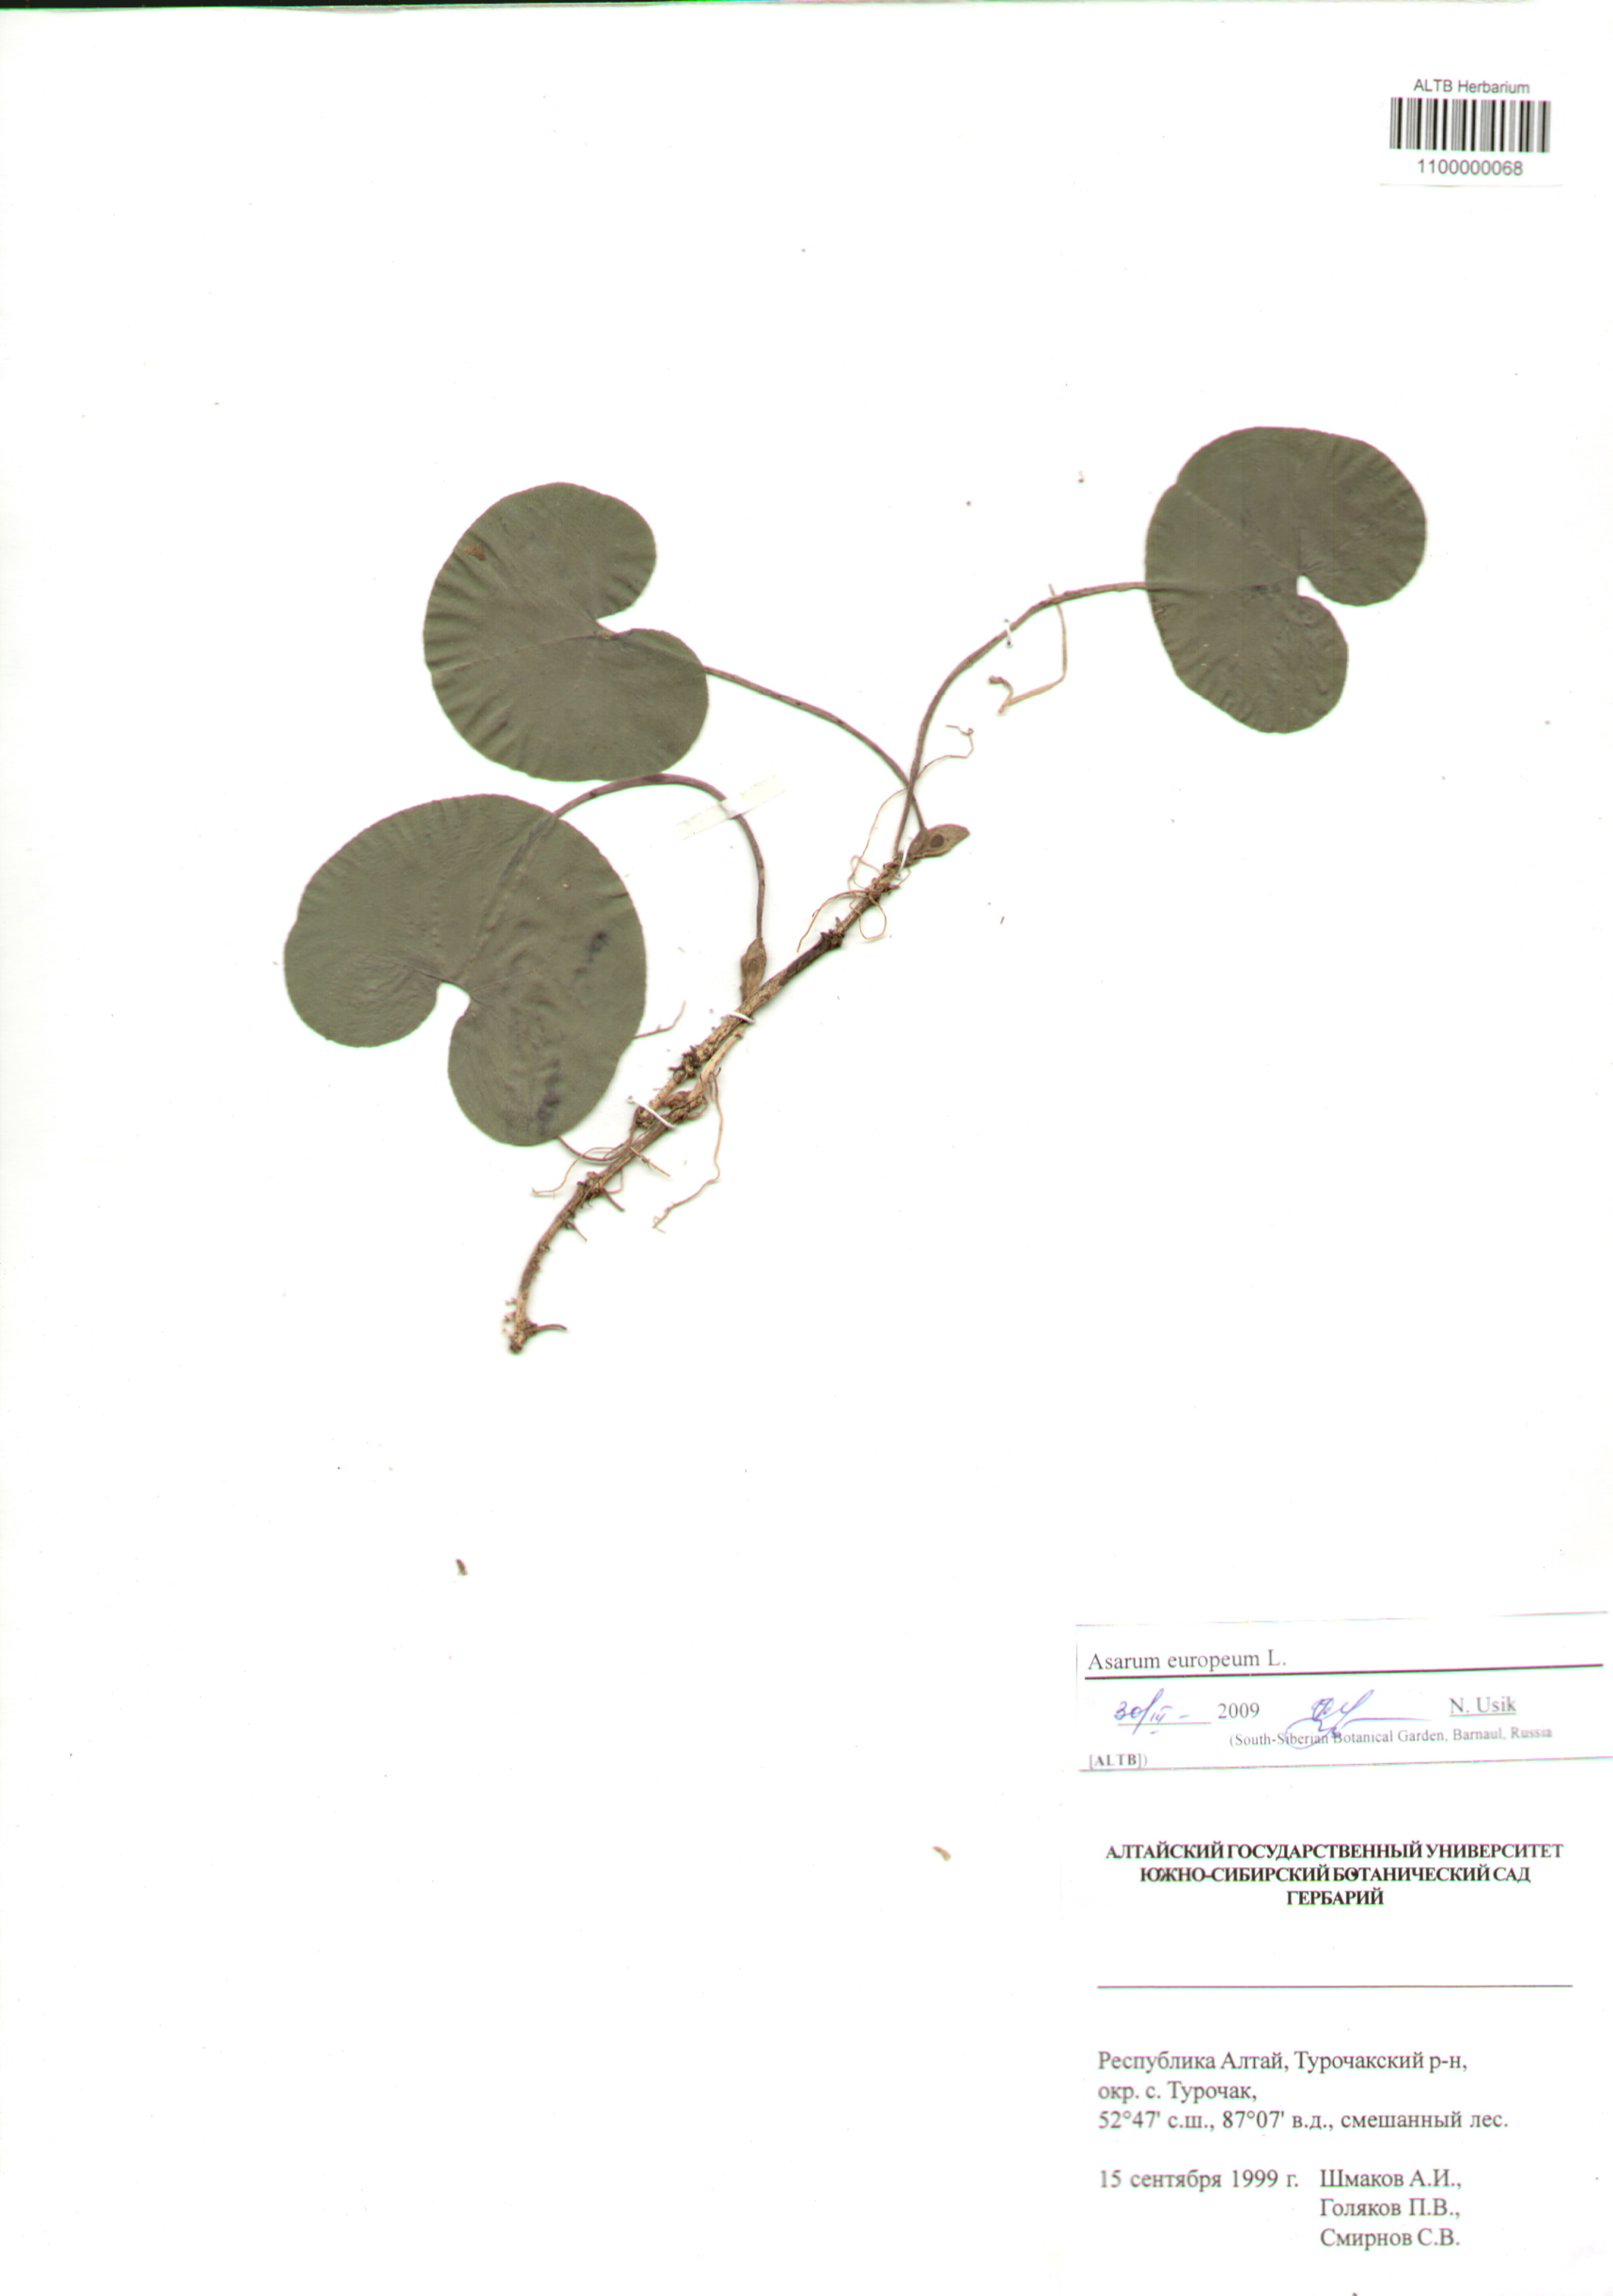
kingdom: Plantae
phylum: Tracheophyta
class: Magnoliopsida
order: Piperales
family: Aristolochiaceae
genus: Asarum
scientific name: Asarum europaeum
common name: Asarabacca
